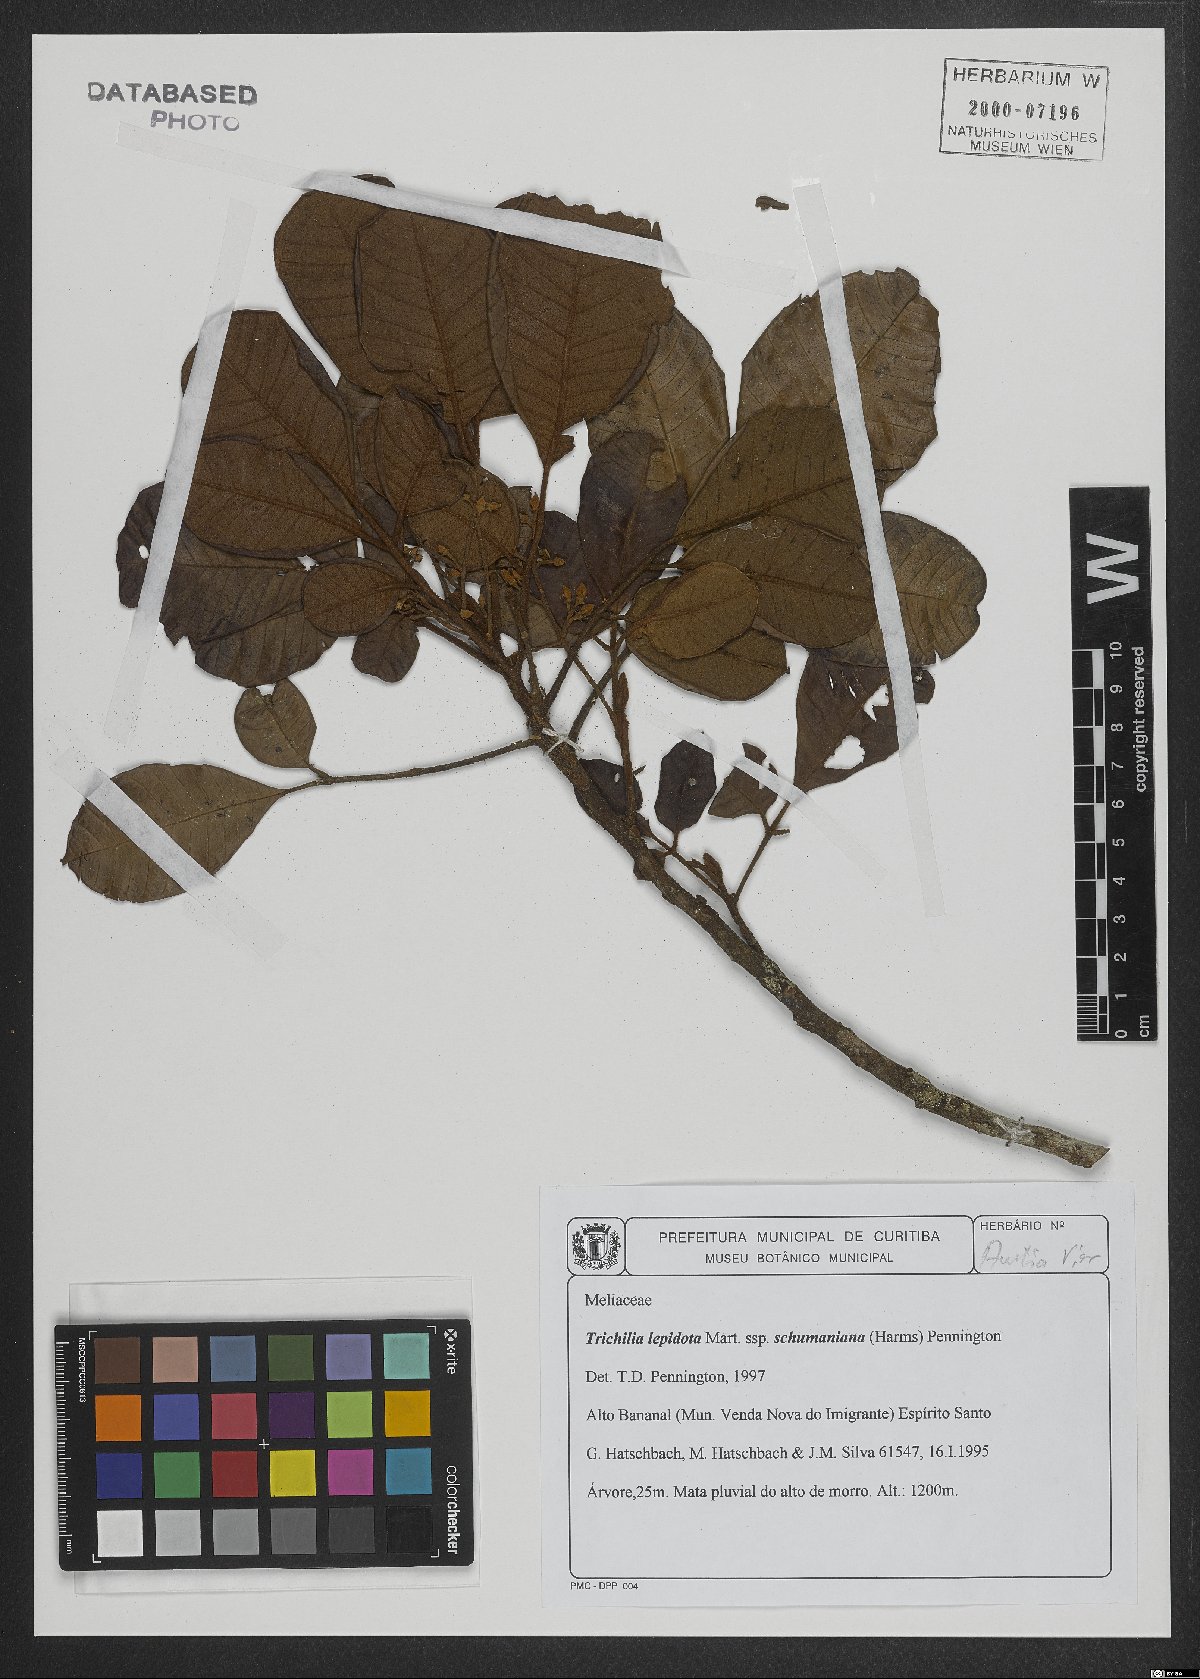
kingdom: Plantae
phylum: Tracheophyta
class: Magnoliopsida
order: Sapindales
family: Meliaceae
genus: Trichilia
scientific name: Trichilia lepidota
